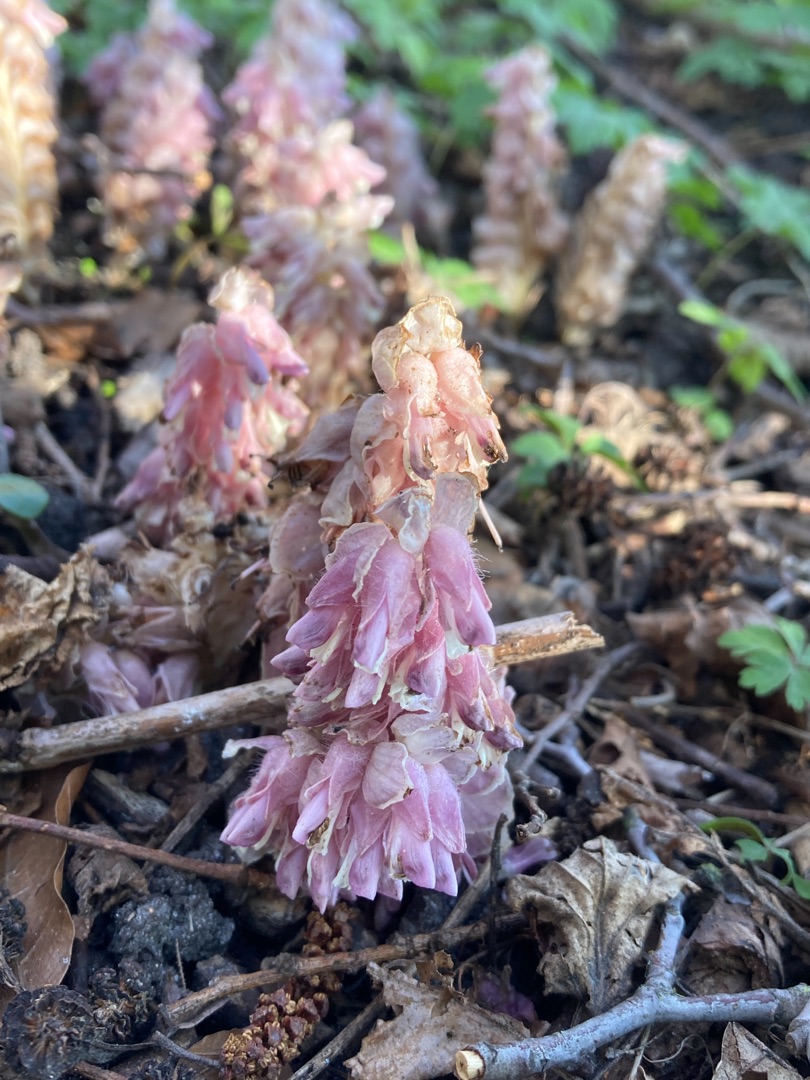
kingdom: Plantae
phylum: Tracheophyta
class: Magnoliopsida
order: Lamiales
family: Orobanchaceae
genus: Lathraea
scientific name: Lathraea squamaria
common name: Skælrod
